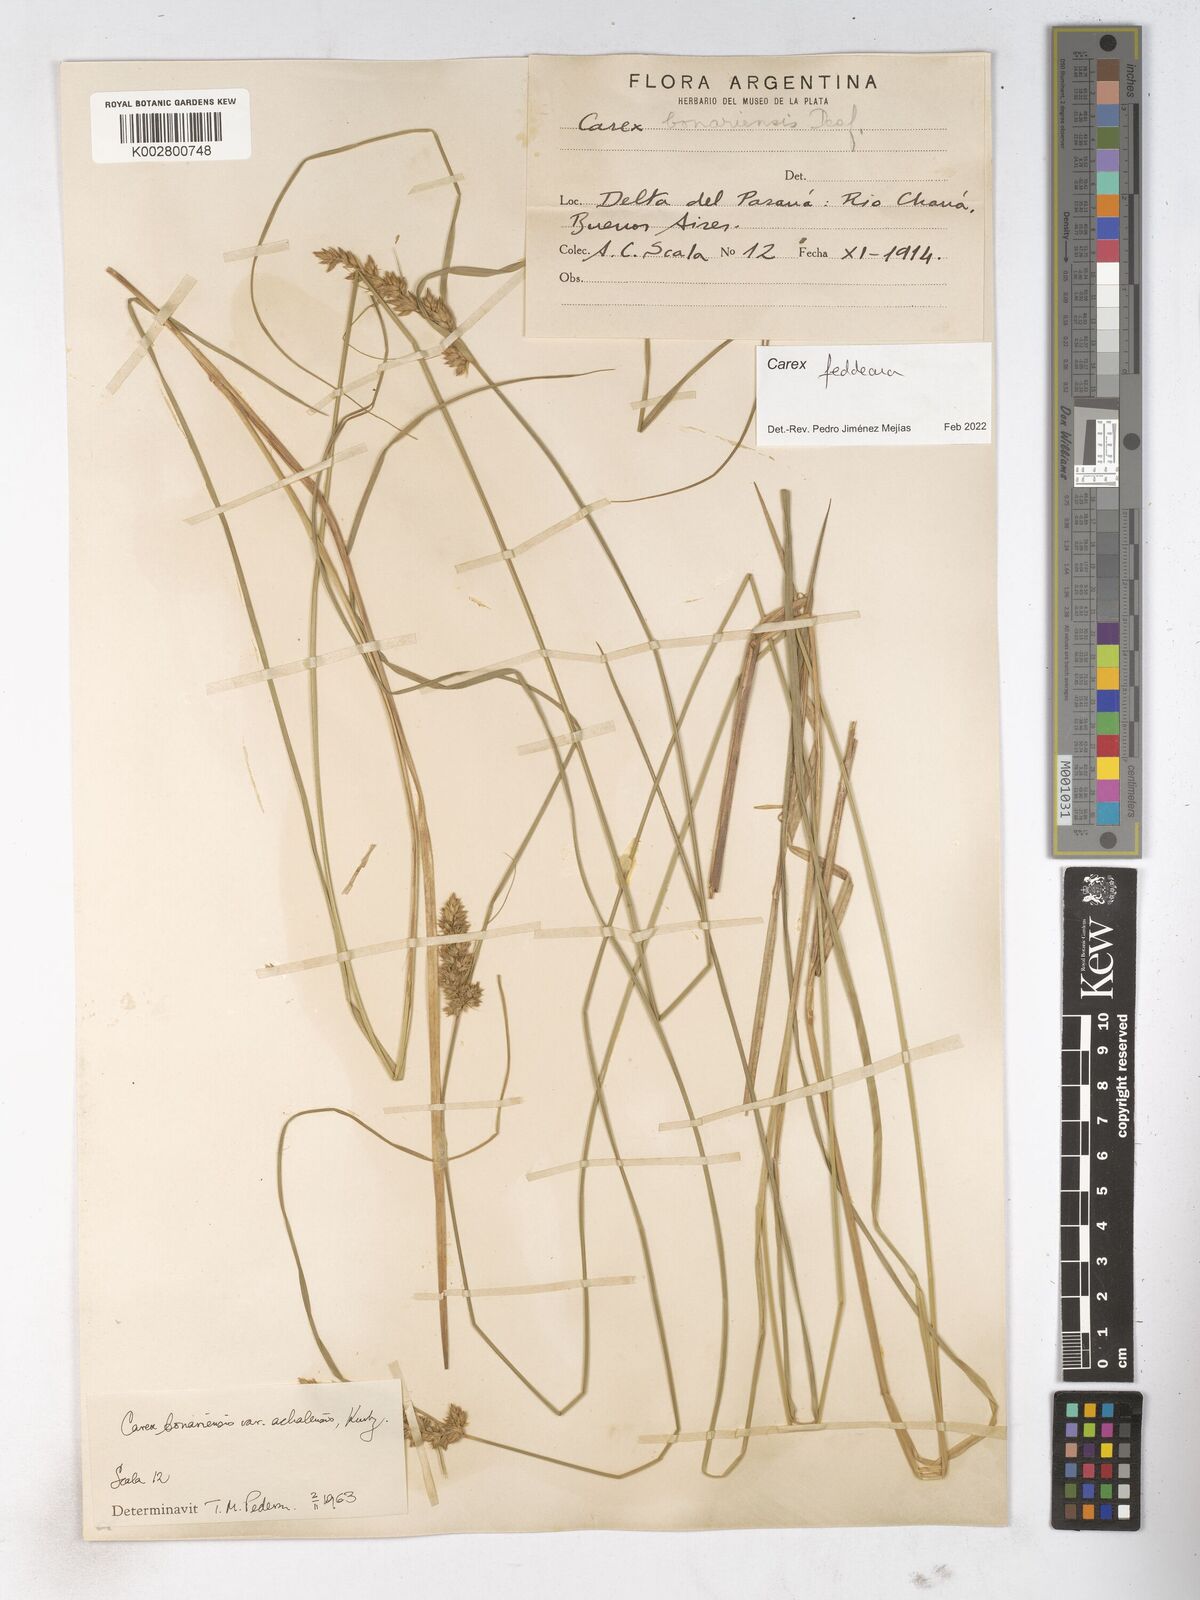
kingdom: Plantae
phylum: Tracheophyta
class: Liliopsida
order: Poales
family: Cyperaceae
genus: Carex
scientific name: Carex bonariensis
